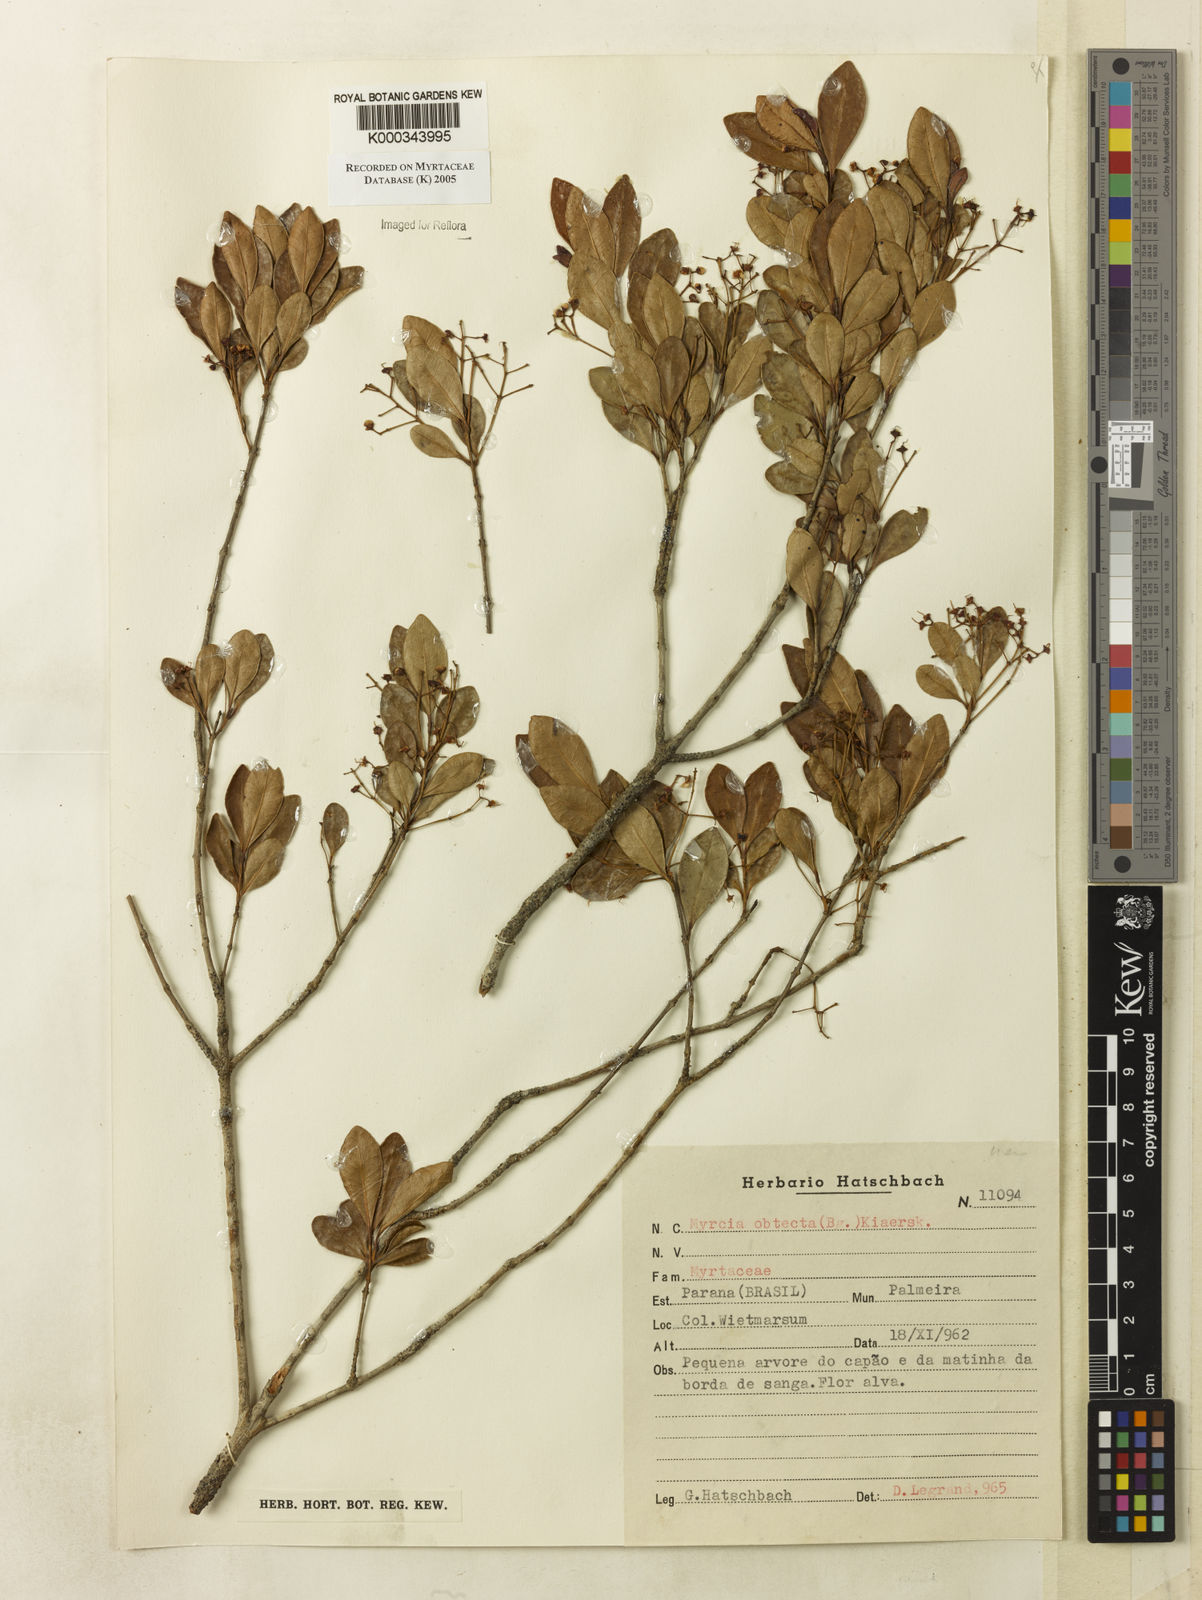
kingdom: Plantae
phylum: Tracheophyta
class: Magnoliopsida
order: Myrtales
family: Myrtaceae
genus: Myrcia
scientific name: Myrcia guianensis
